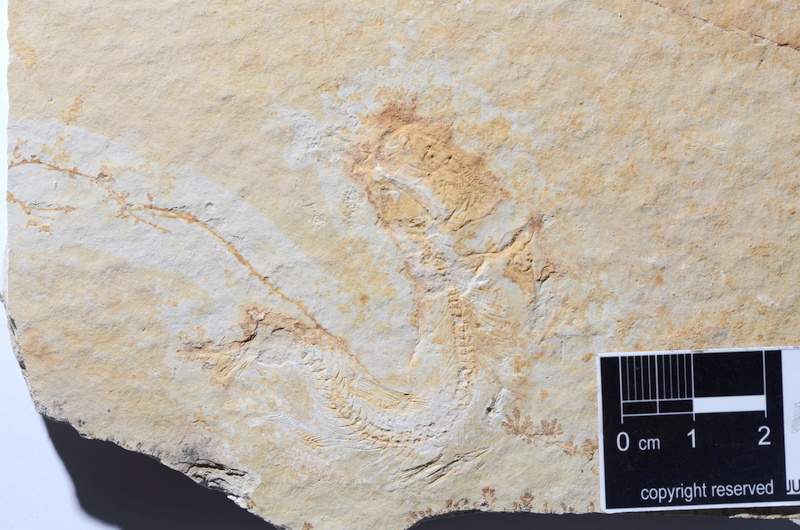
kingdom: Animalia
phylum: Chordata
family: Ascalaboidae
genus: Tharsis
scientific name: Tharsis dubius
